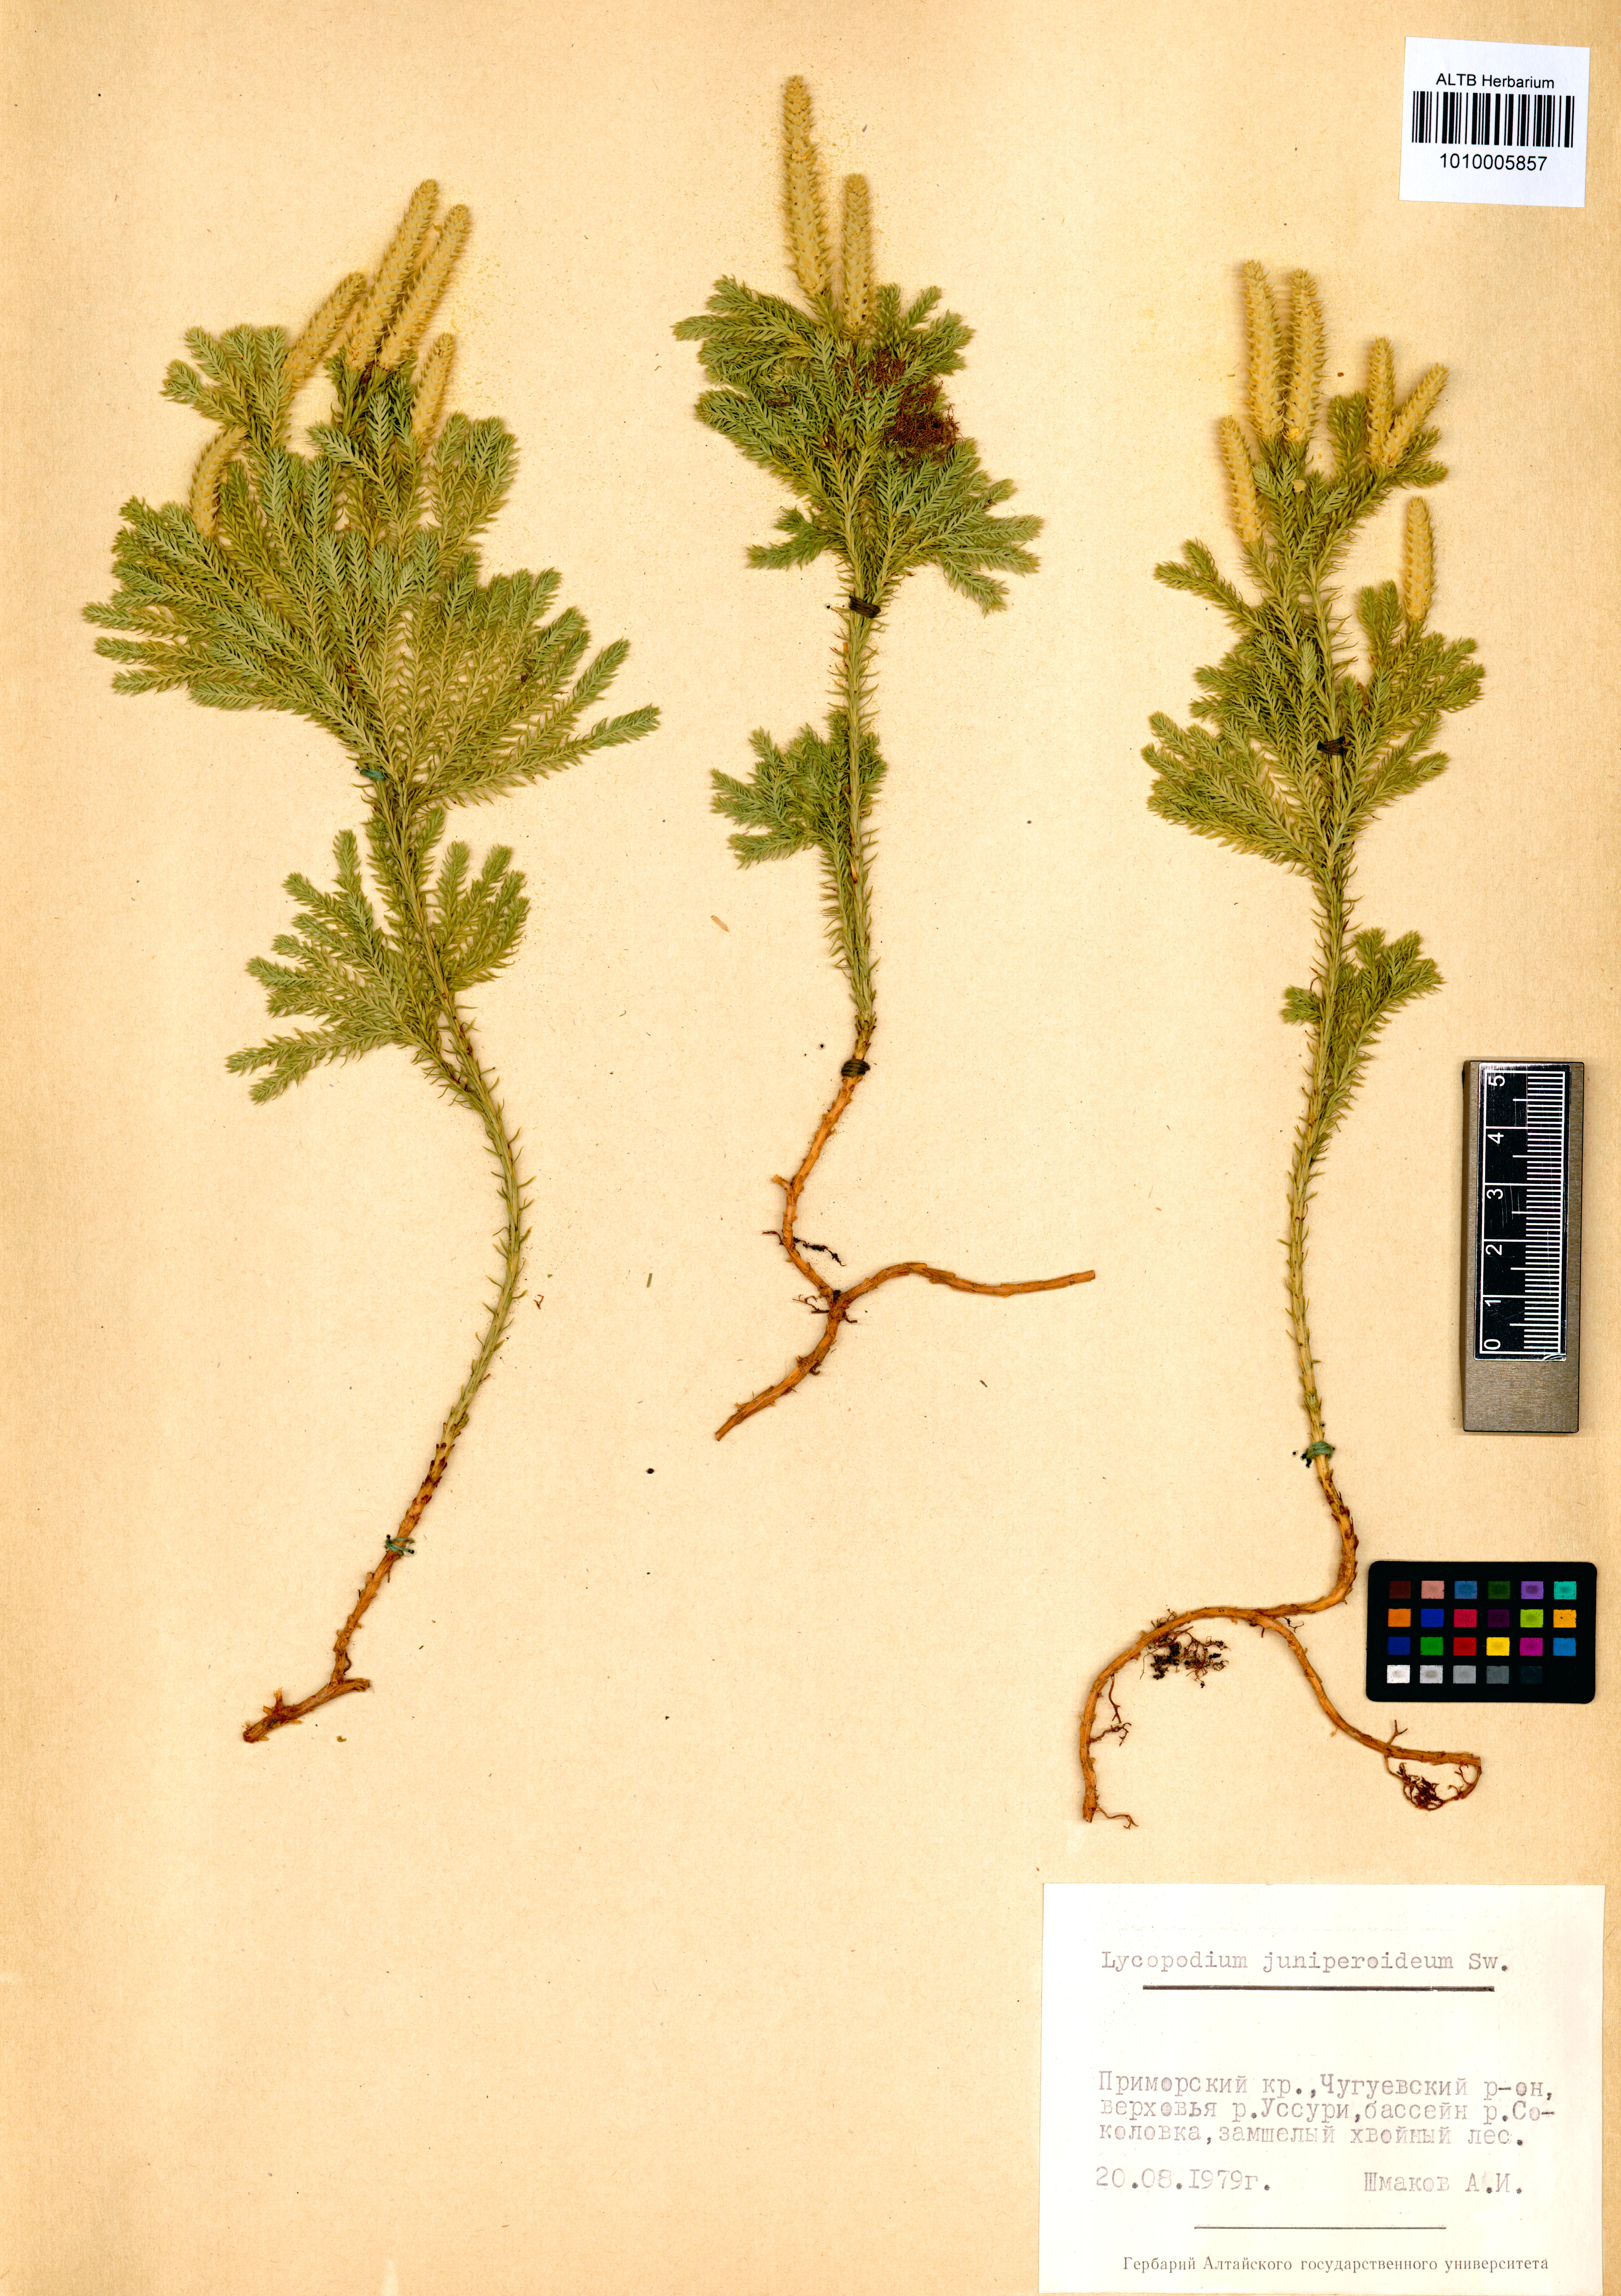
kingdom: Plantae
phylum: Tracheophyta
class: Lycopodiopsida
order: Lycopodiales
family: Lycopodiaceae
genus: Dendrolycopodium
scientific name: Dendrolycopodium juniperoideum
